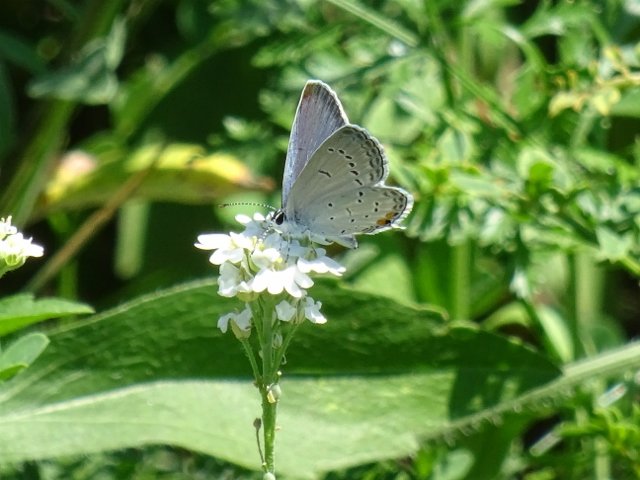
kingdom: Animalia
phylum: Arthropoda
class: Insecta
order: Lepidoptera
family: Lycaenidae
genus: Elkalyce
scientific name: Elkalyce comyntas
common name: Eastern Tailed-Blue
